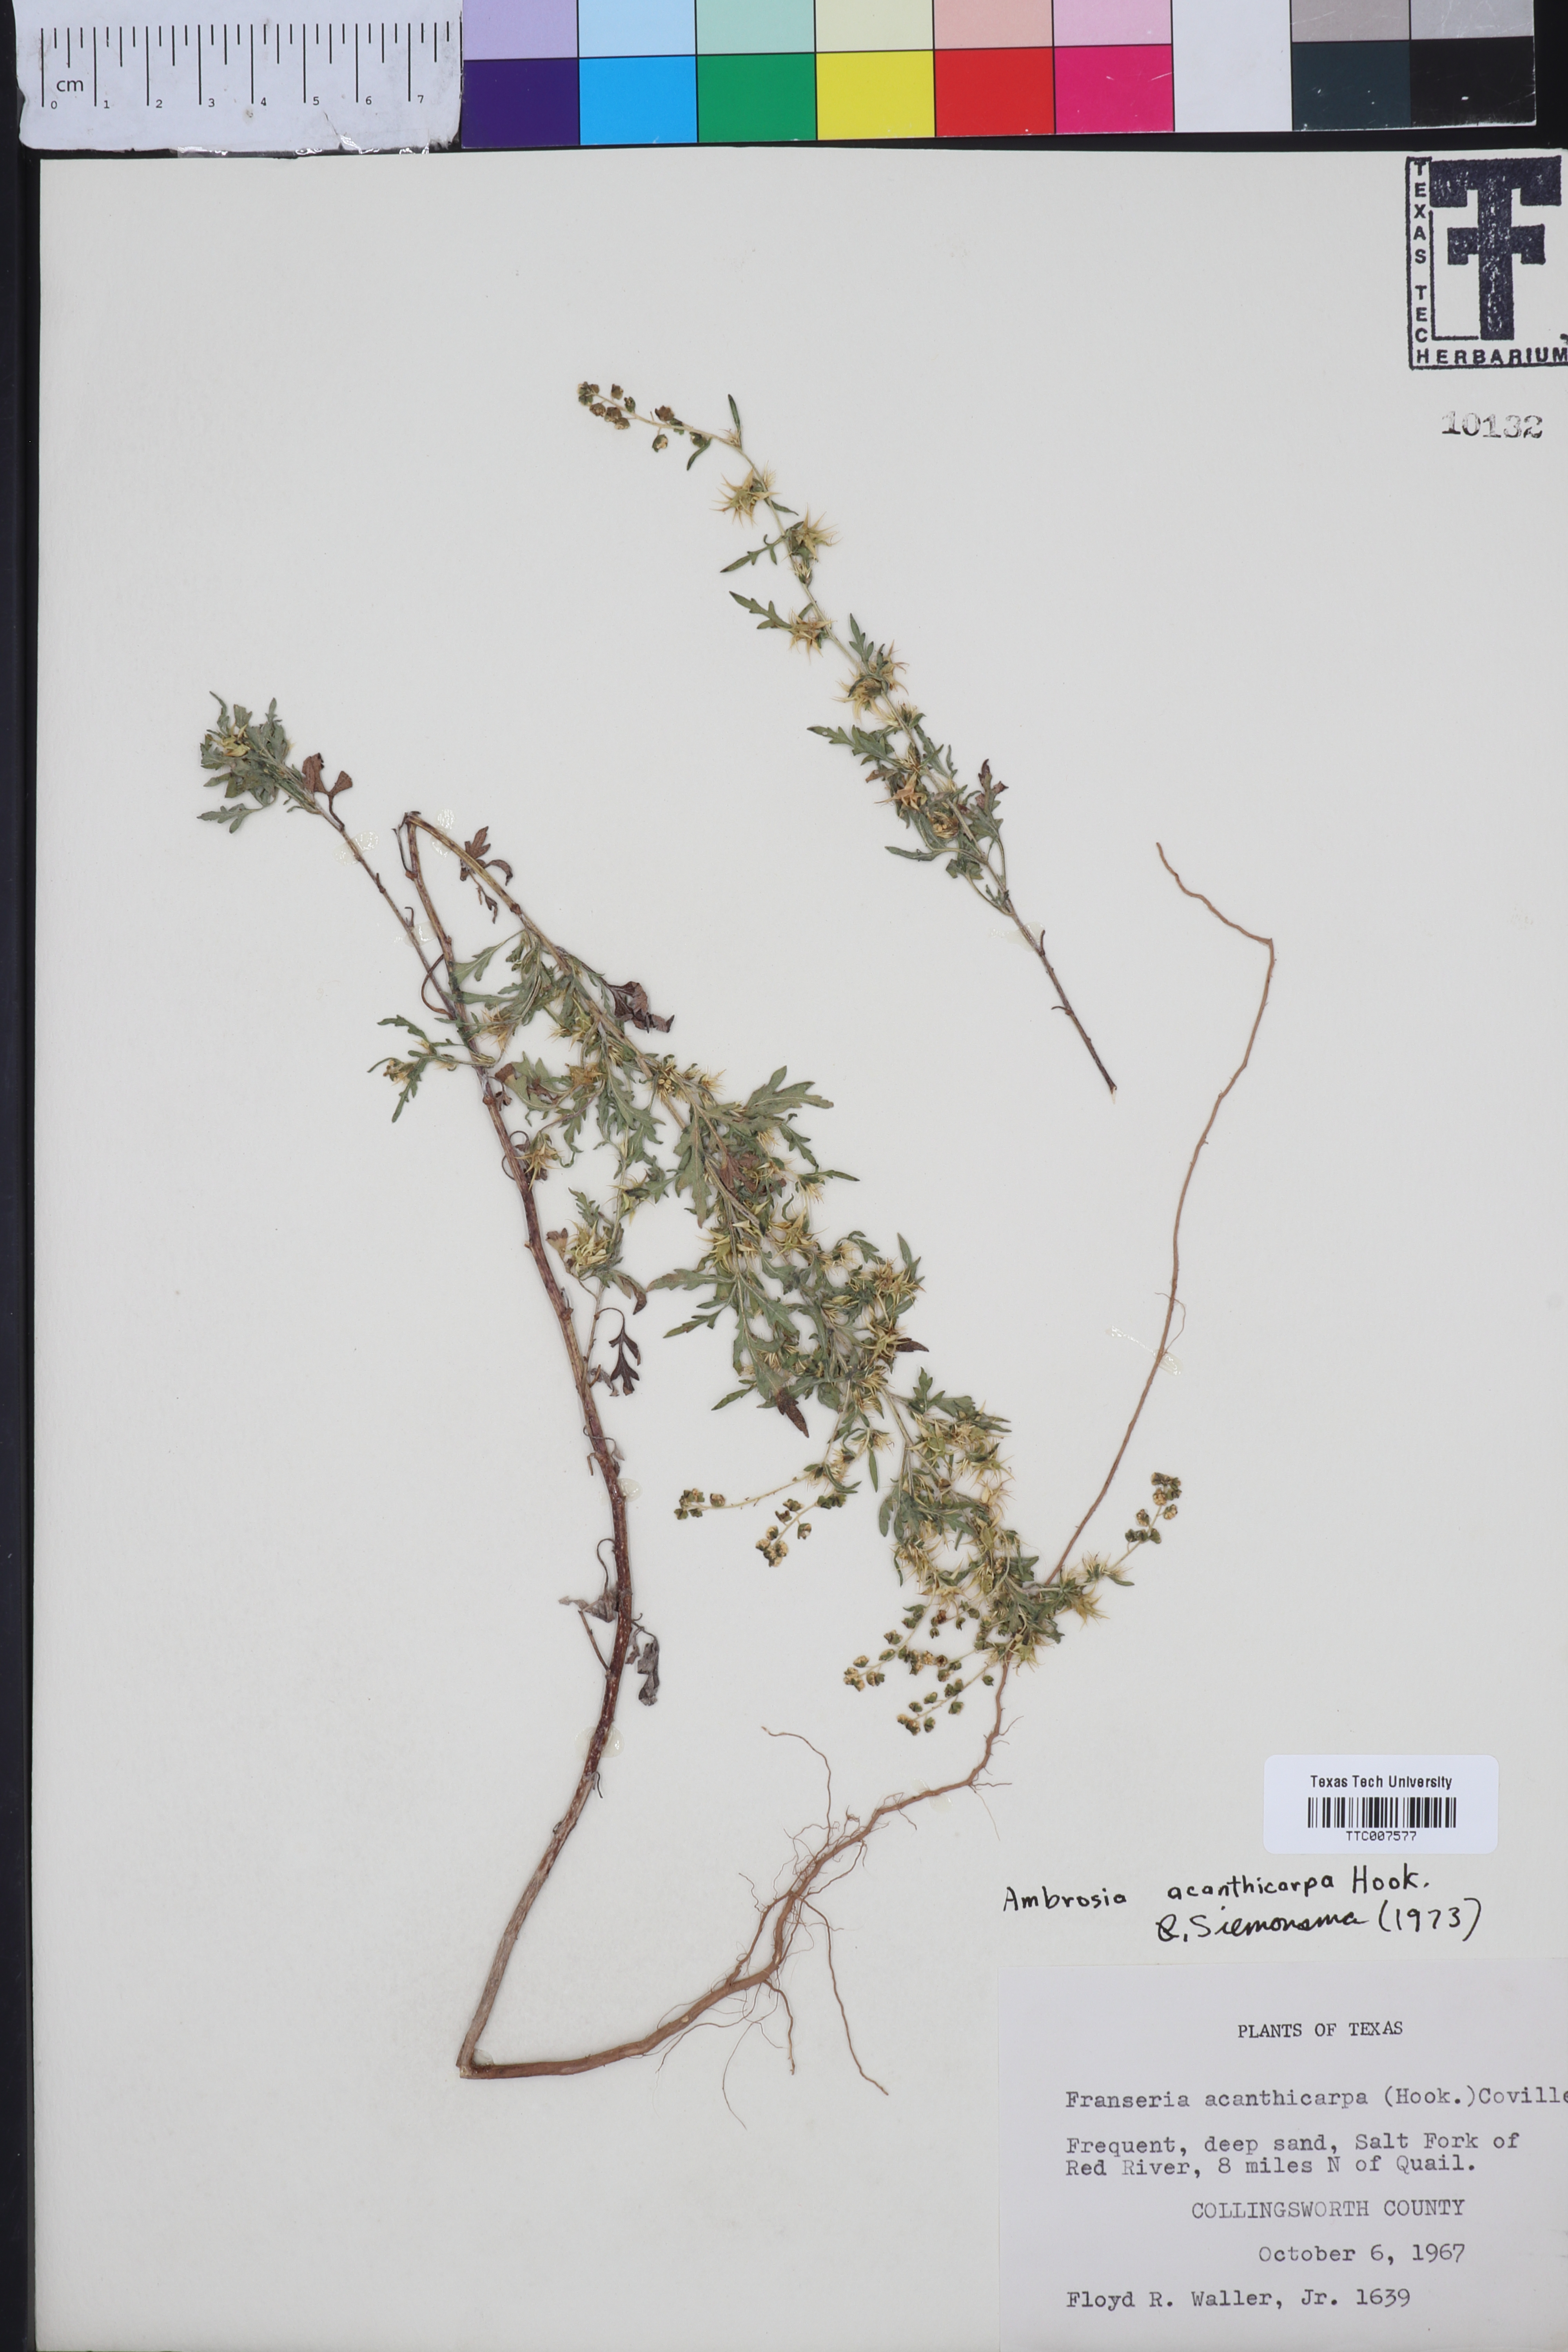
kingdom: Plantae
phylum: Tracheophyta
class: Magnoliopsida
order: Asterales
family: Asteraceae
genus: Ambrosia
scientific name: Ambrosia acanthicarpa
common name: Hooker's bur ragweed
